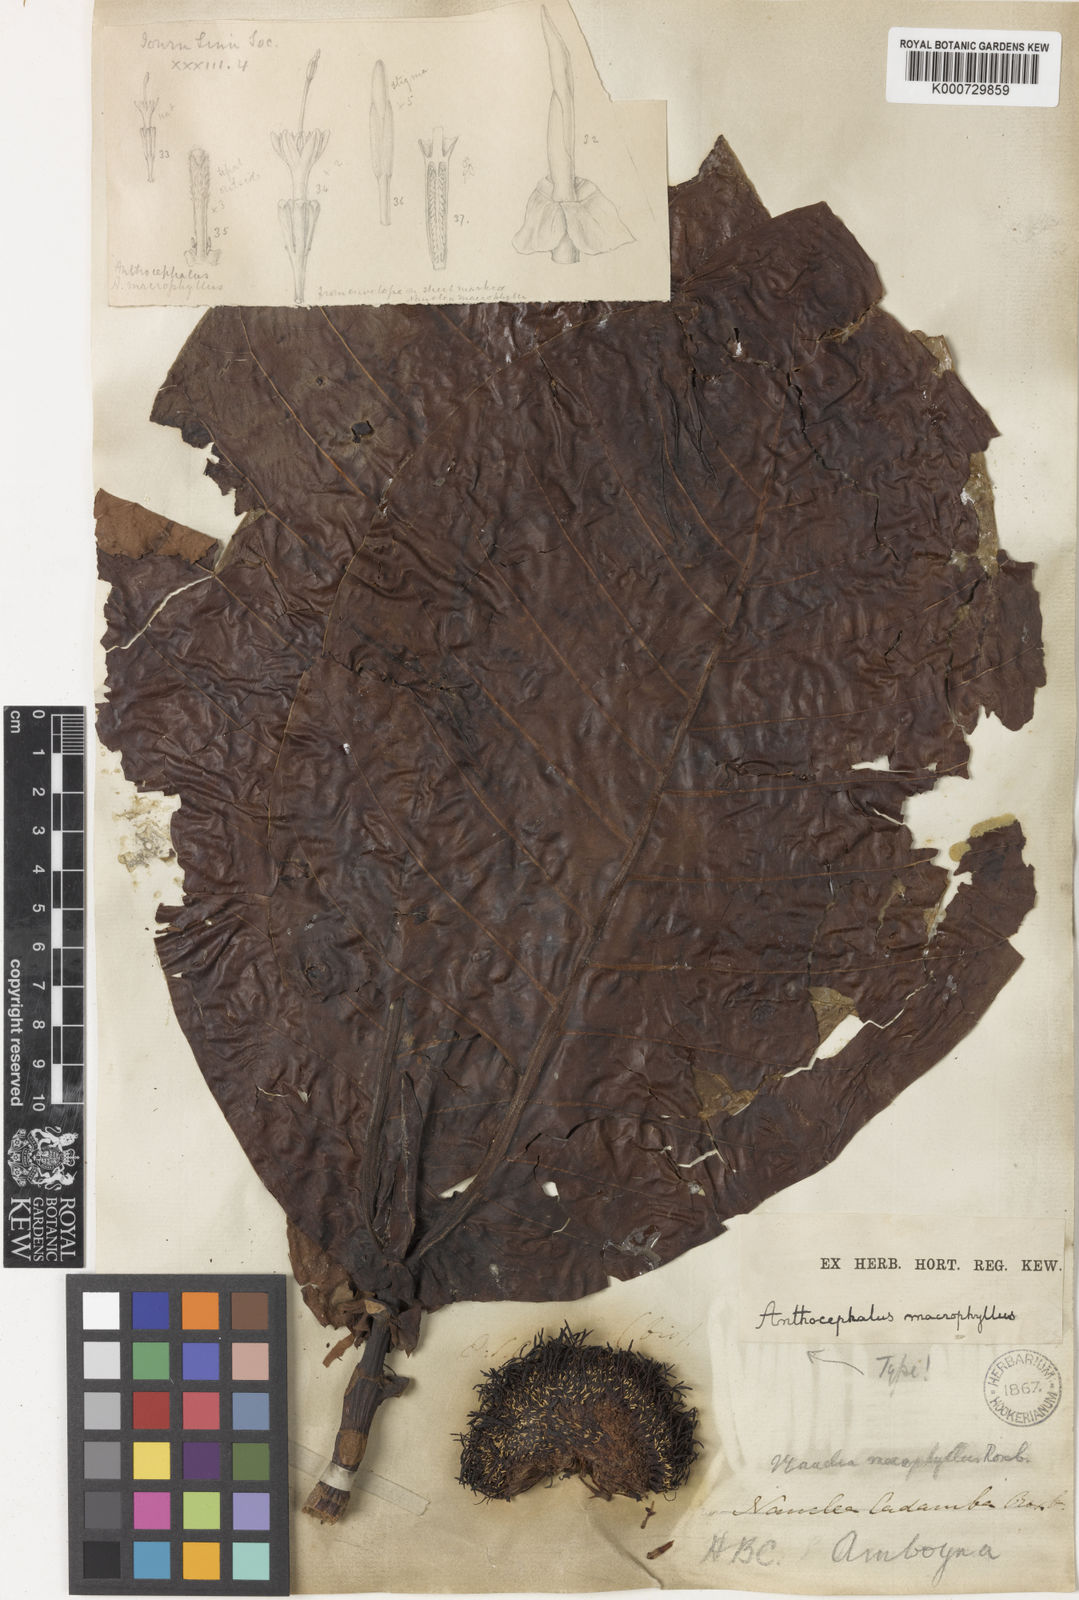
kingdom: Plantae
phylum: Tracheophyta
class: Magnoliopsida
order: Gentianales
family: Rubiaceae
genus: Neolamarckia
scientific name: Neolamarckia macrophylla
